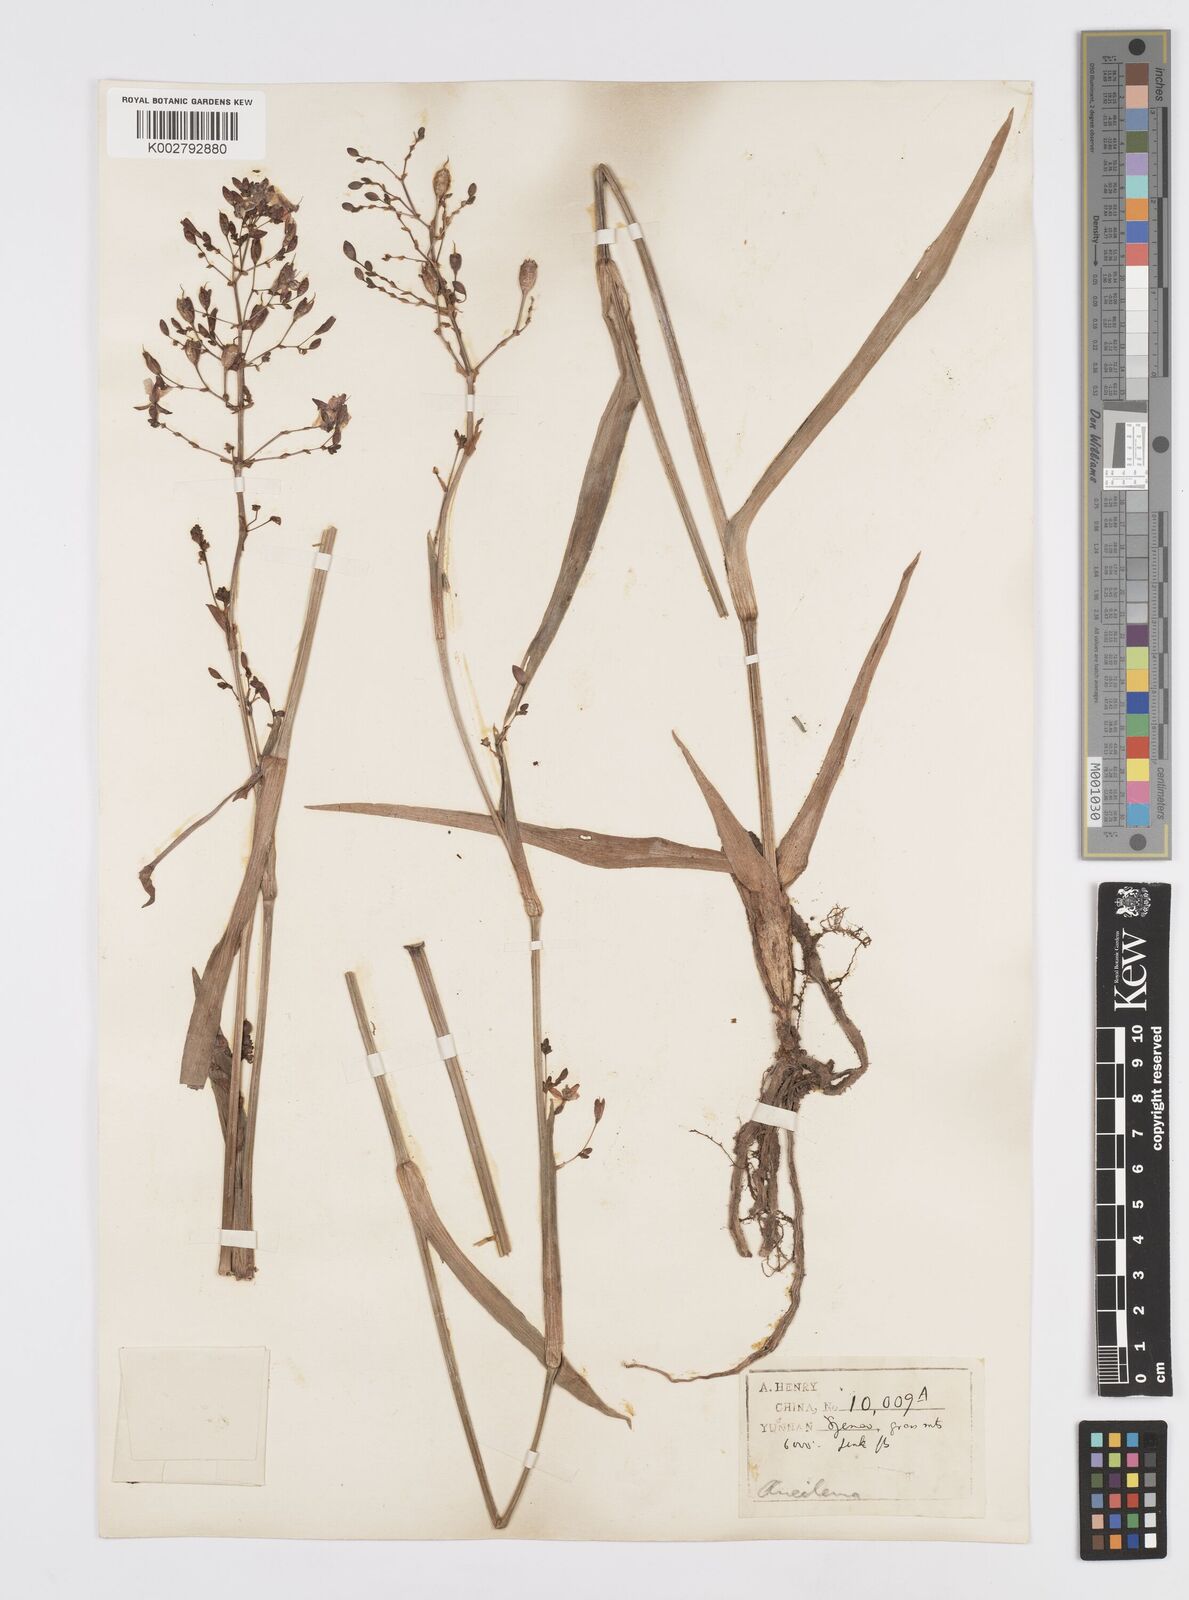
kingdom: Plantae
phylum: Tracheophyta
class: Liliopsida
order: Commelinales
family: Commelinaceae
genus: Murdannia
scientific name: Murdannia
